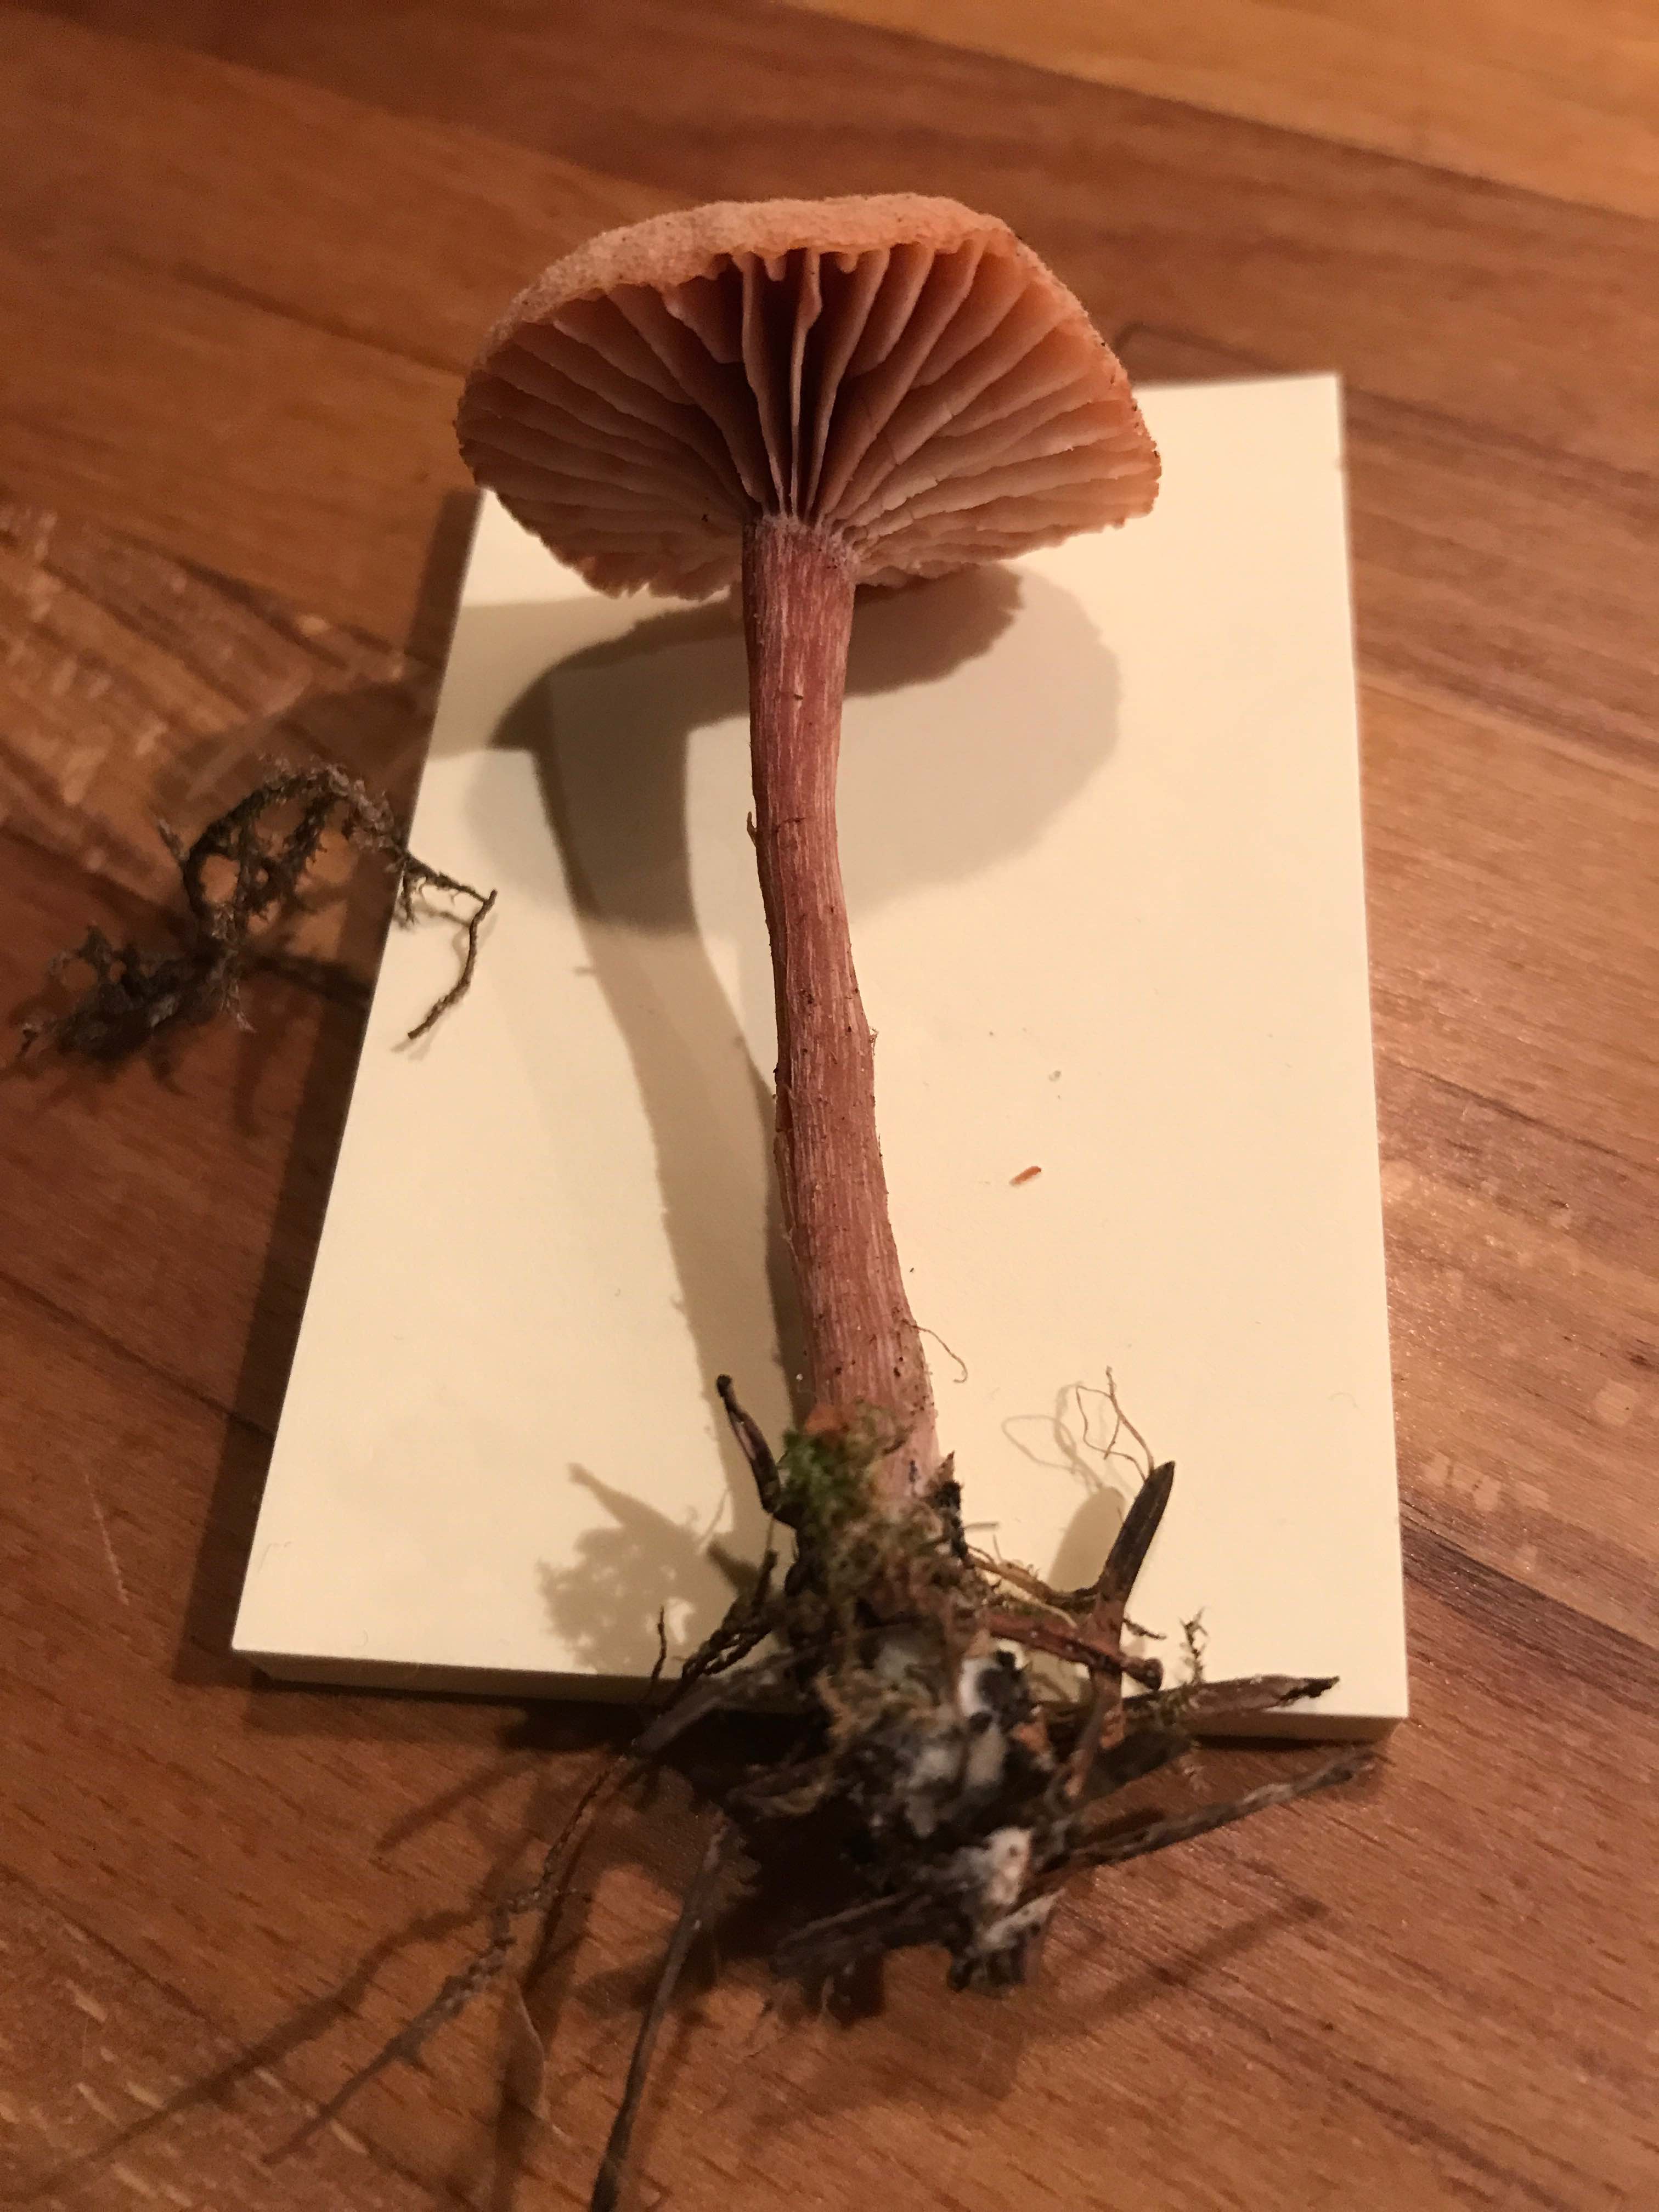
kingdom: Fungi
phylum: Basidiomycota
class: Agaricomycetes
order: Agaricales
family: Hydnangiaceae
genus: Laccaria
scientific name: Laccaria proxima
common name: stor ametysthat
